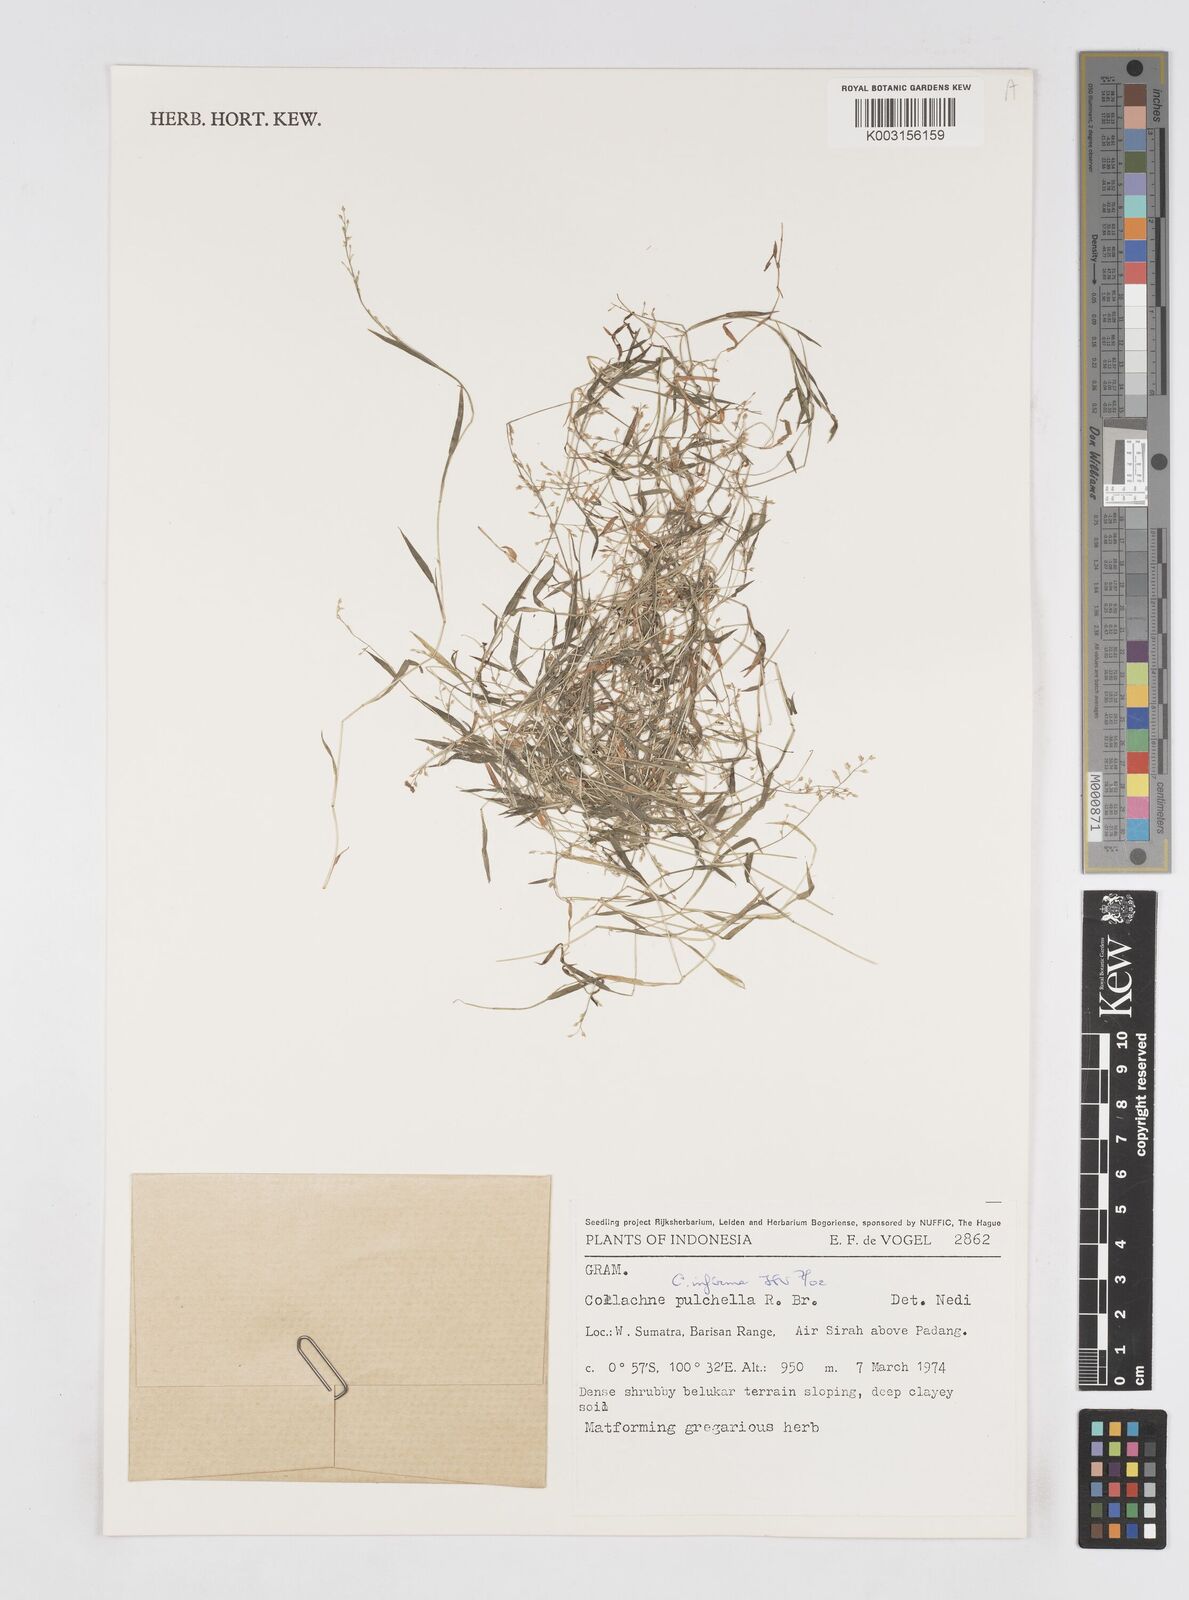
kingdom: Plantae
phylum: Tracheophyta
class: Liliopsida
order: Poales
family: Poaceae
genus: Coelachne
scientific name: Coelachne infirma
